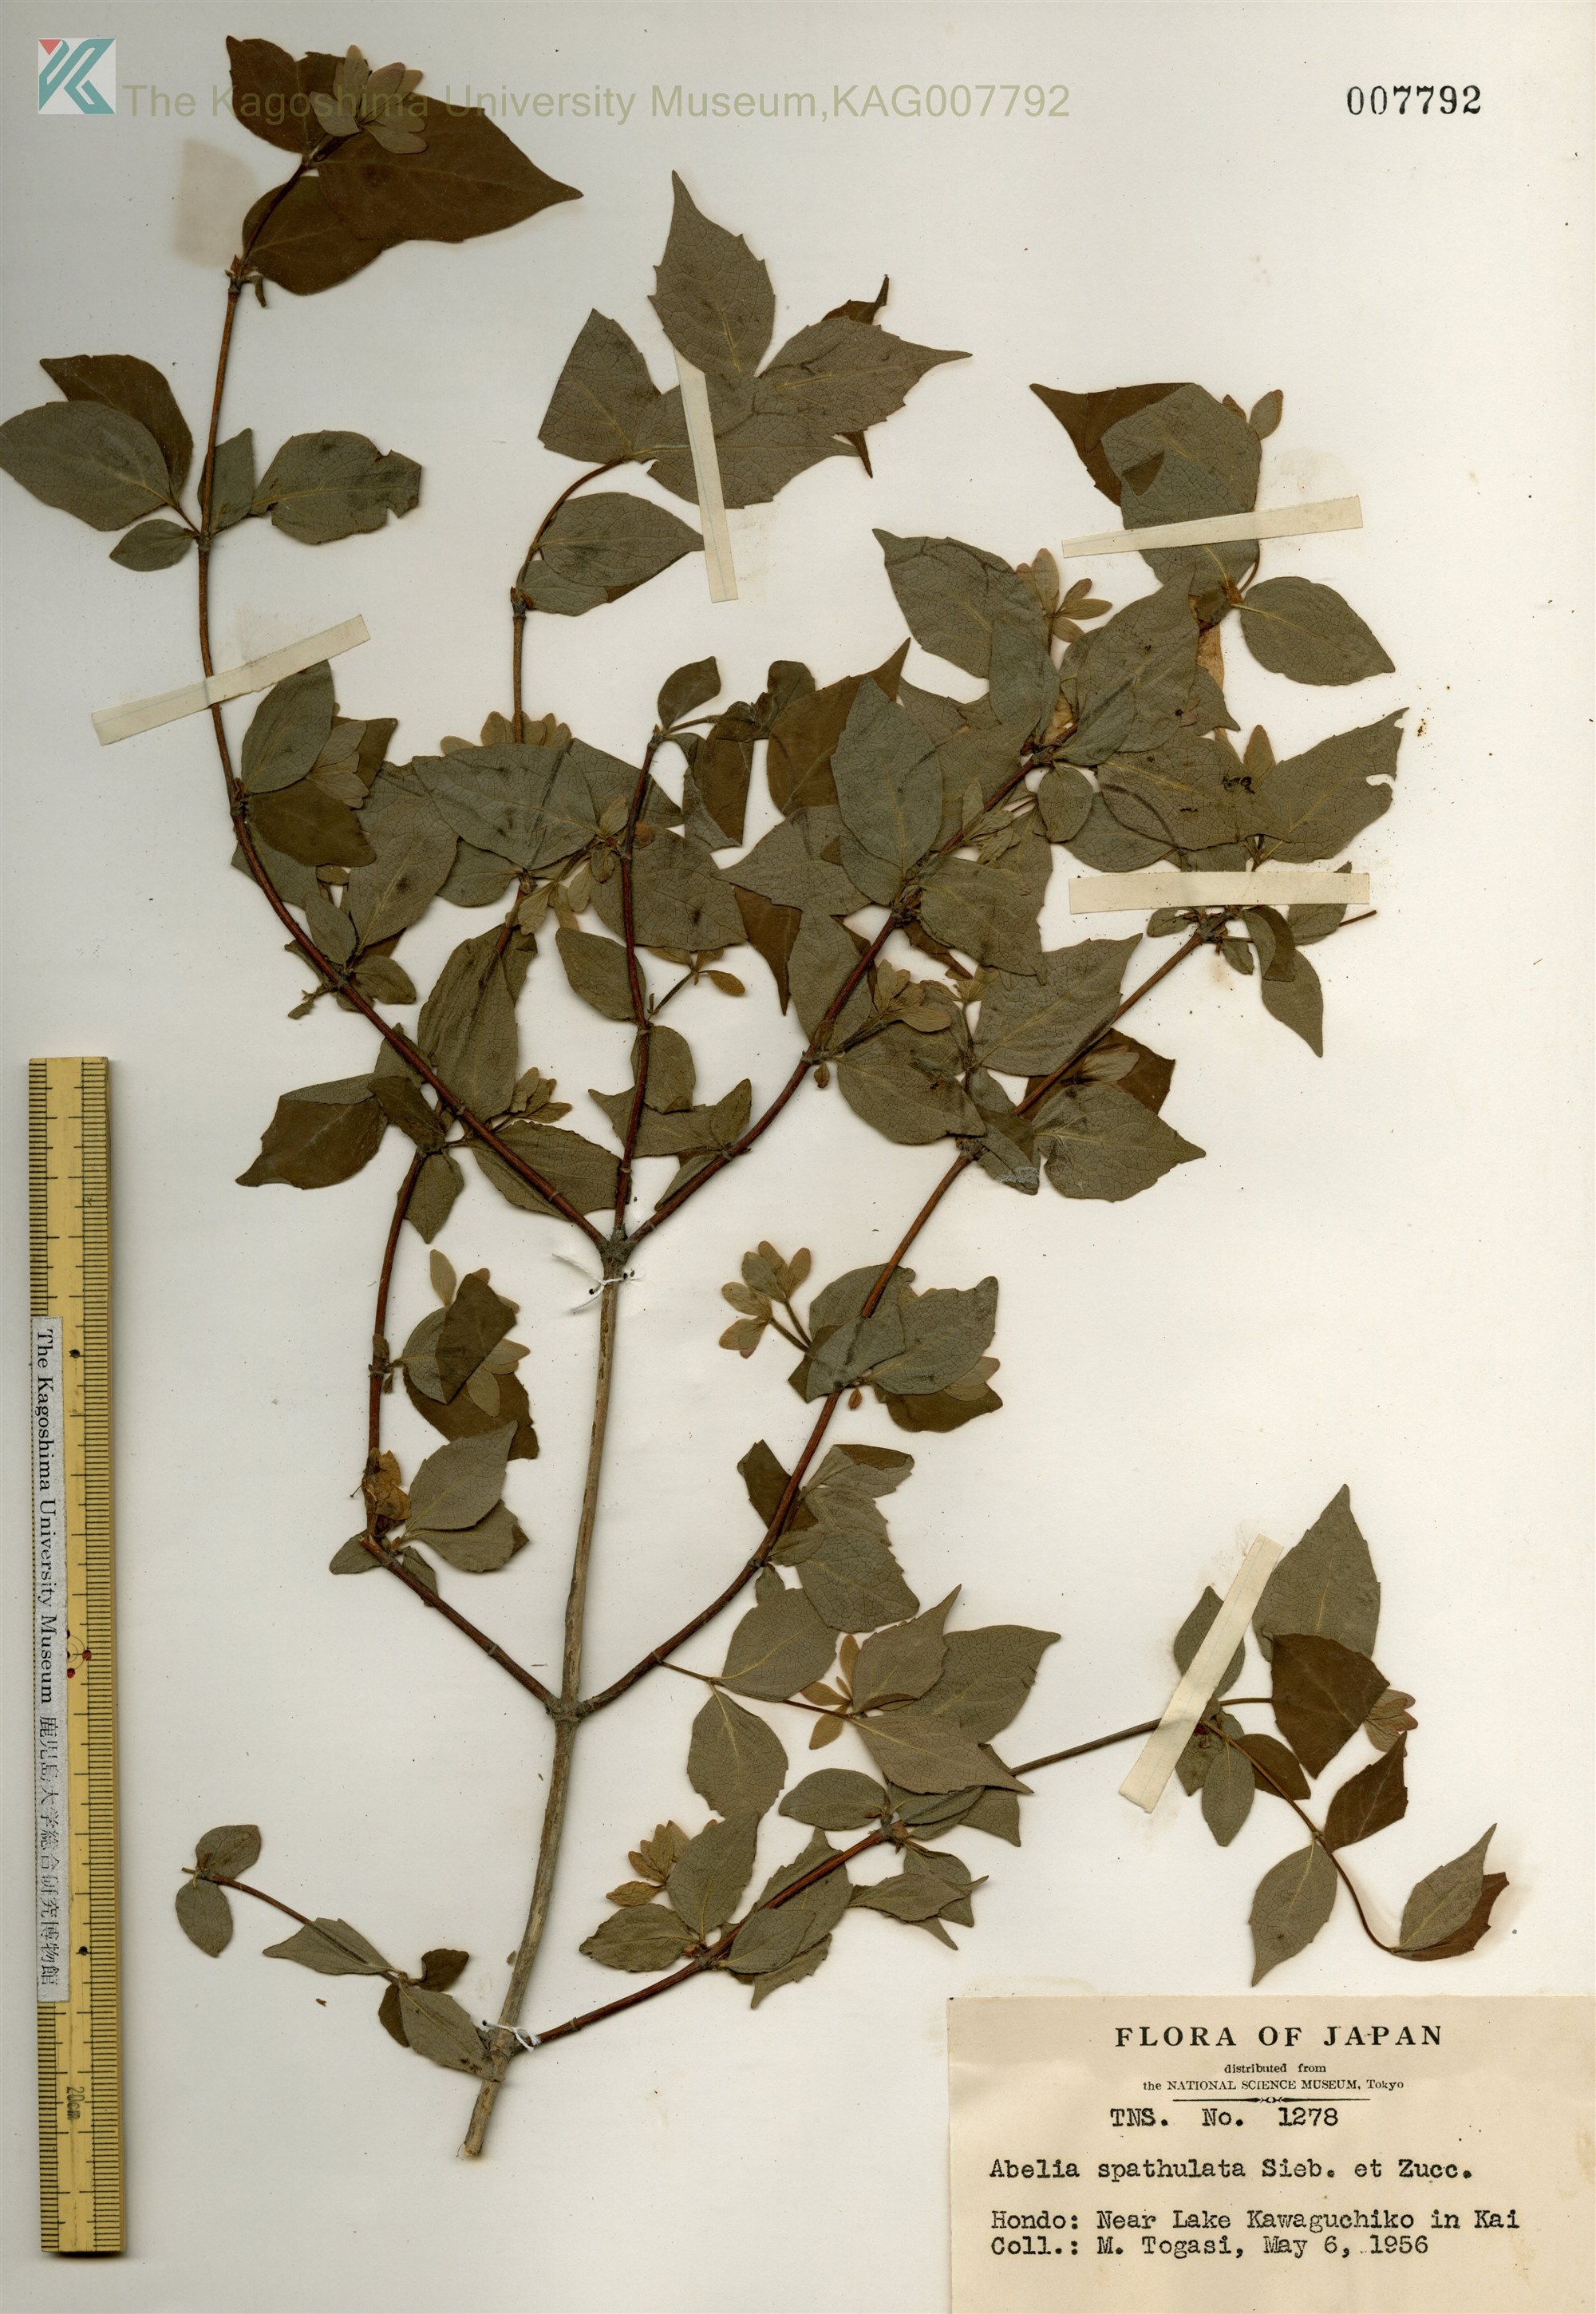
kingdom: Plantae
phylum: Tracheophyta
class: Magnoliopsida
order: Dipsacales
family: Caprifoliaceae
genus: Diabelia
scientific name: Diabelia spathulata
